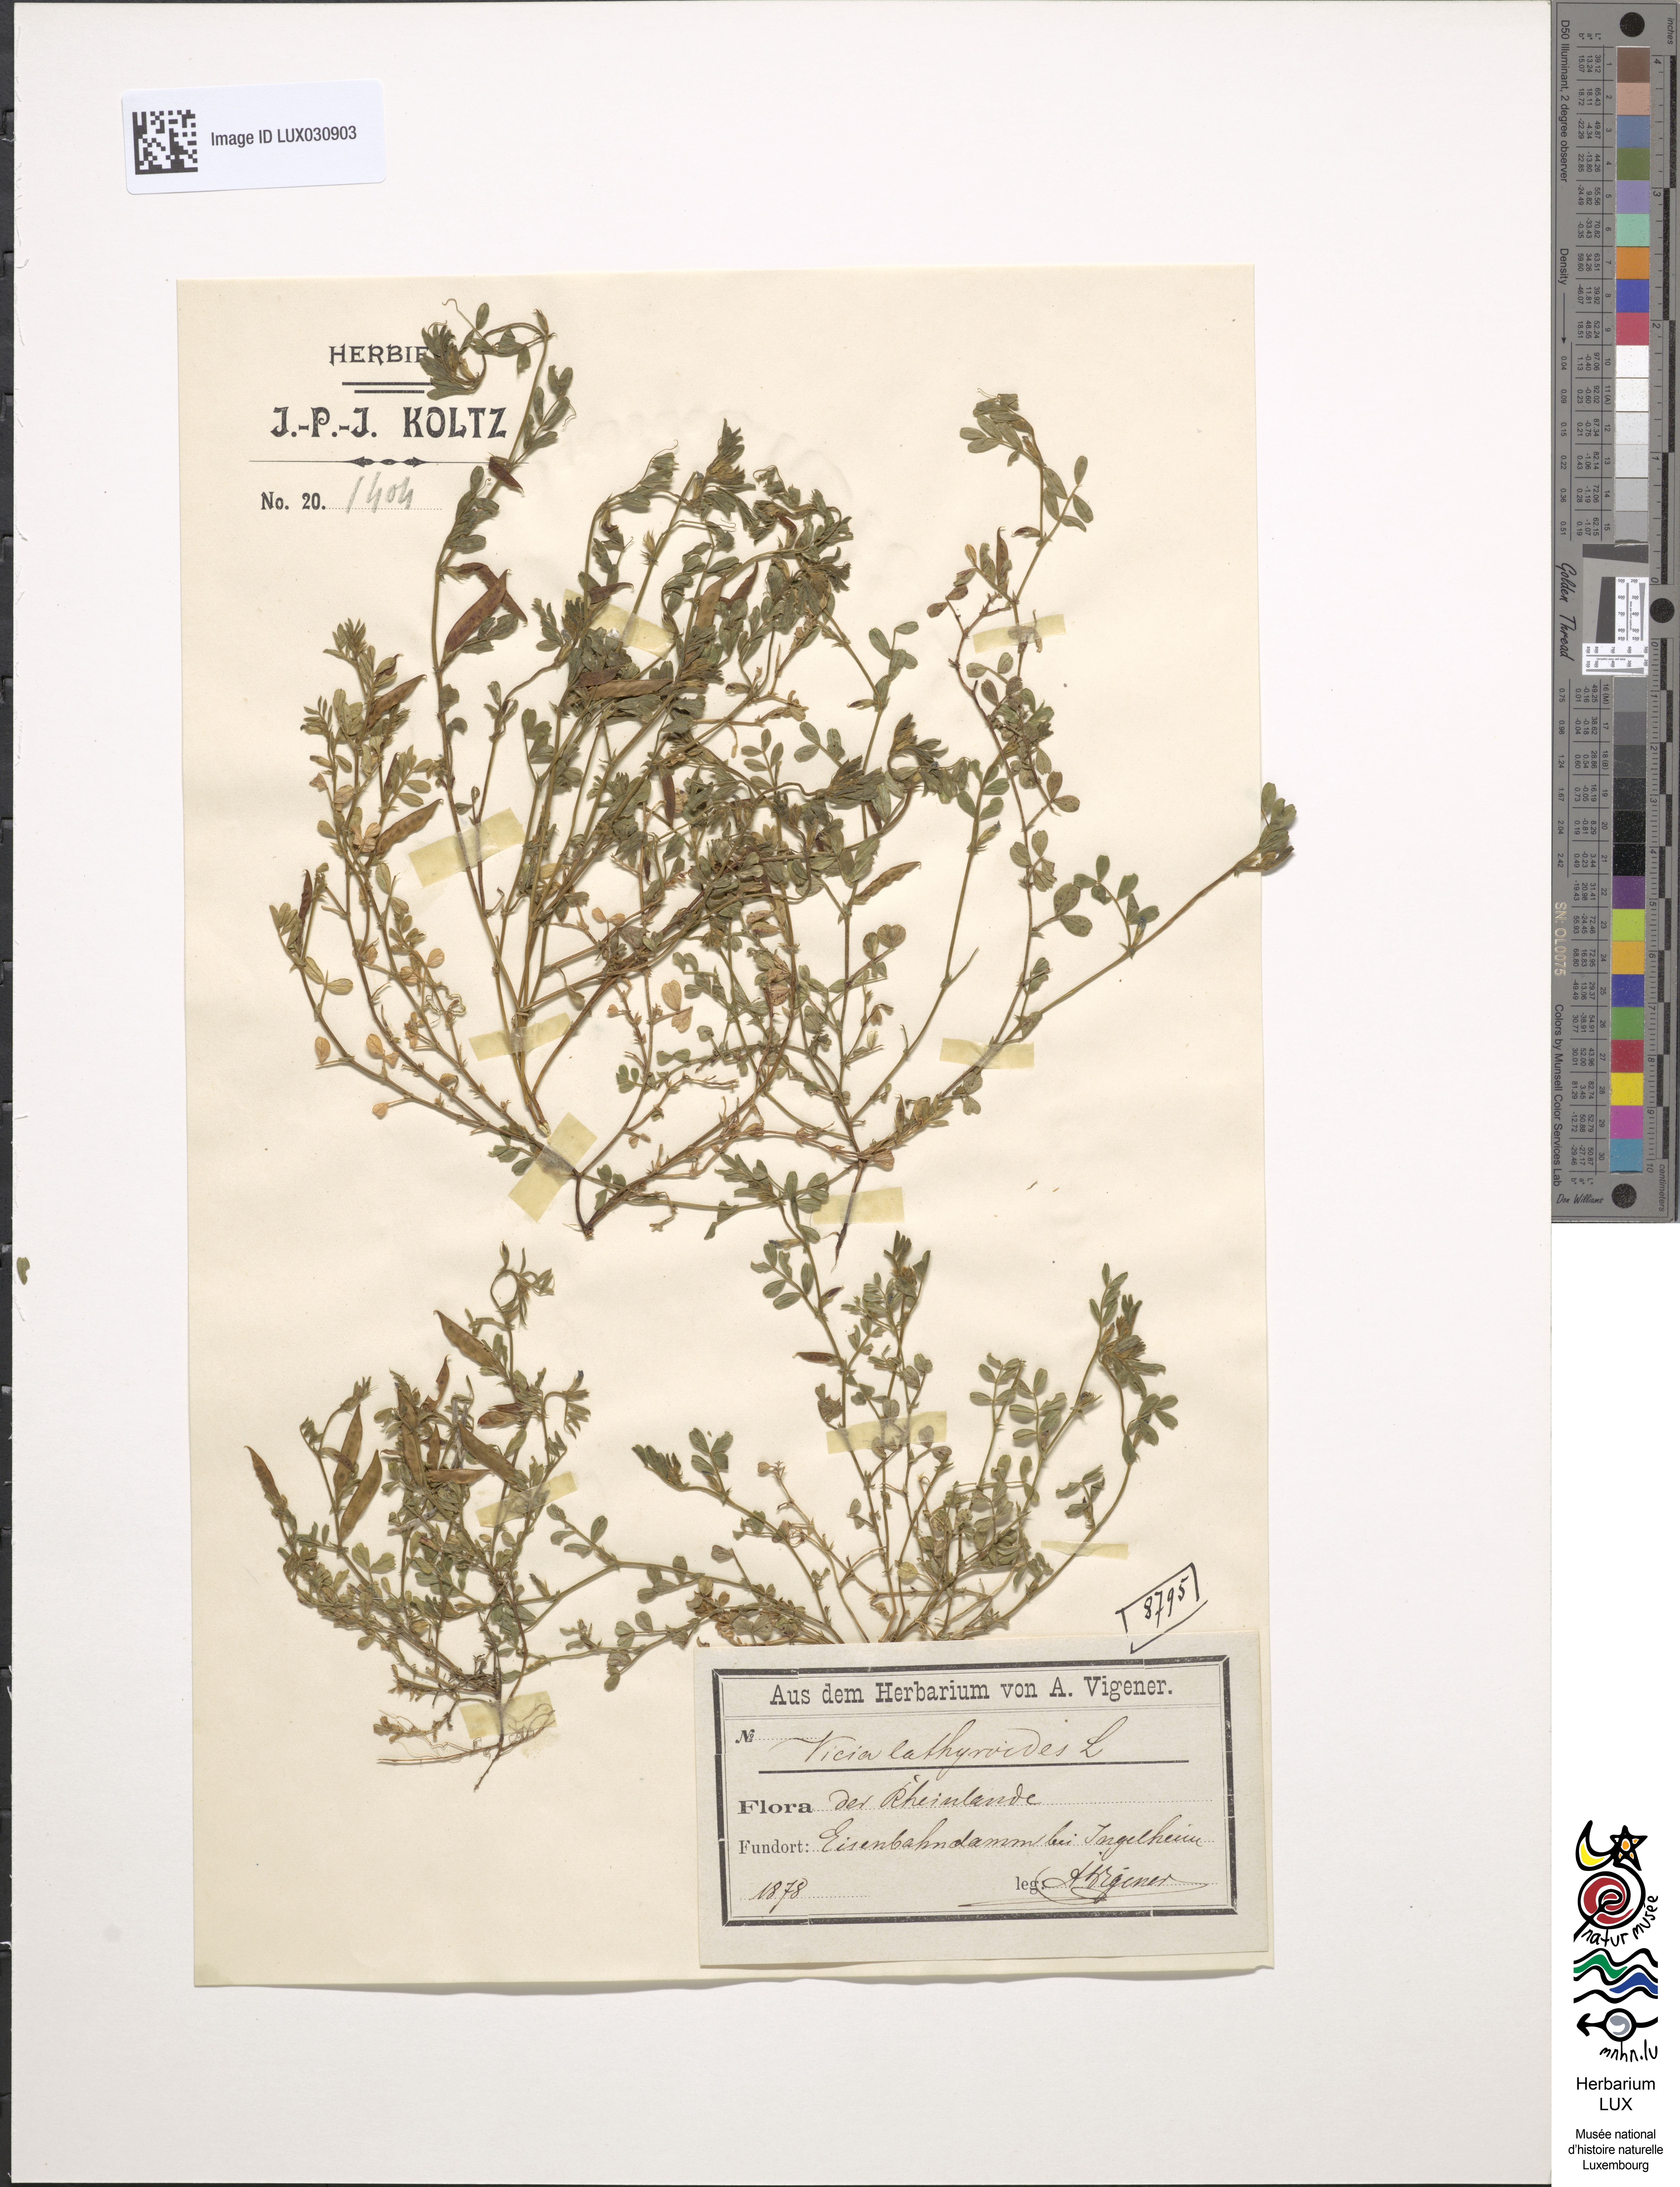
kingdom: Plantae
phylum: Tracheophyta
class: Magnoliopsida
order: Fabales
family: Fabaceae
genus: Vicia
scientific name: Vicia lathyroides
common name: Spring vetch
